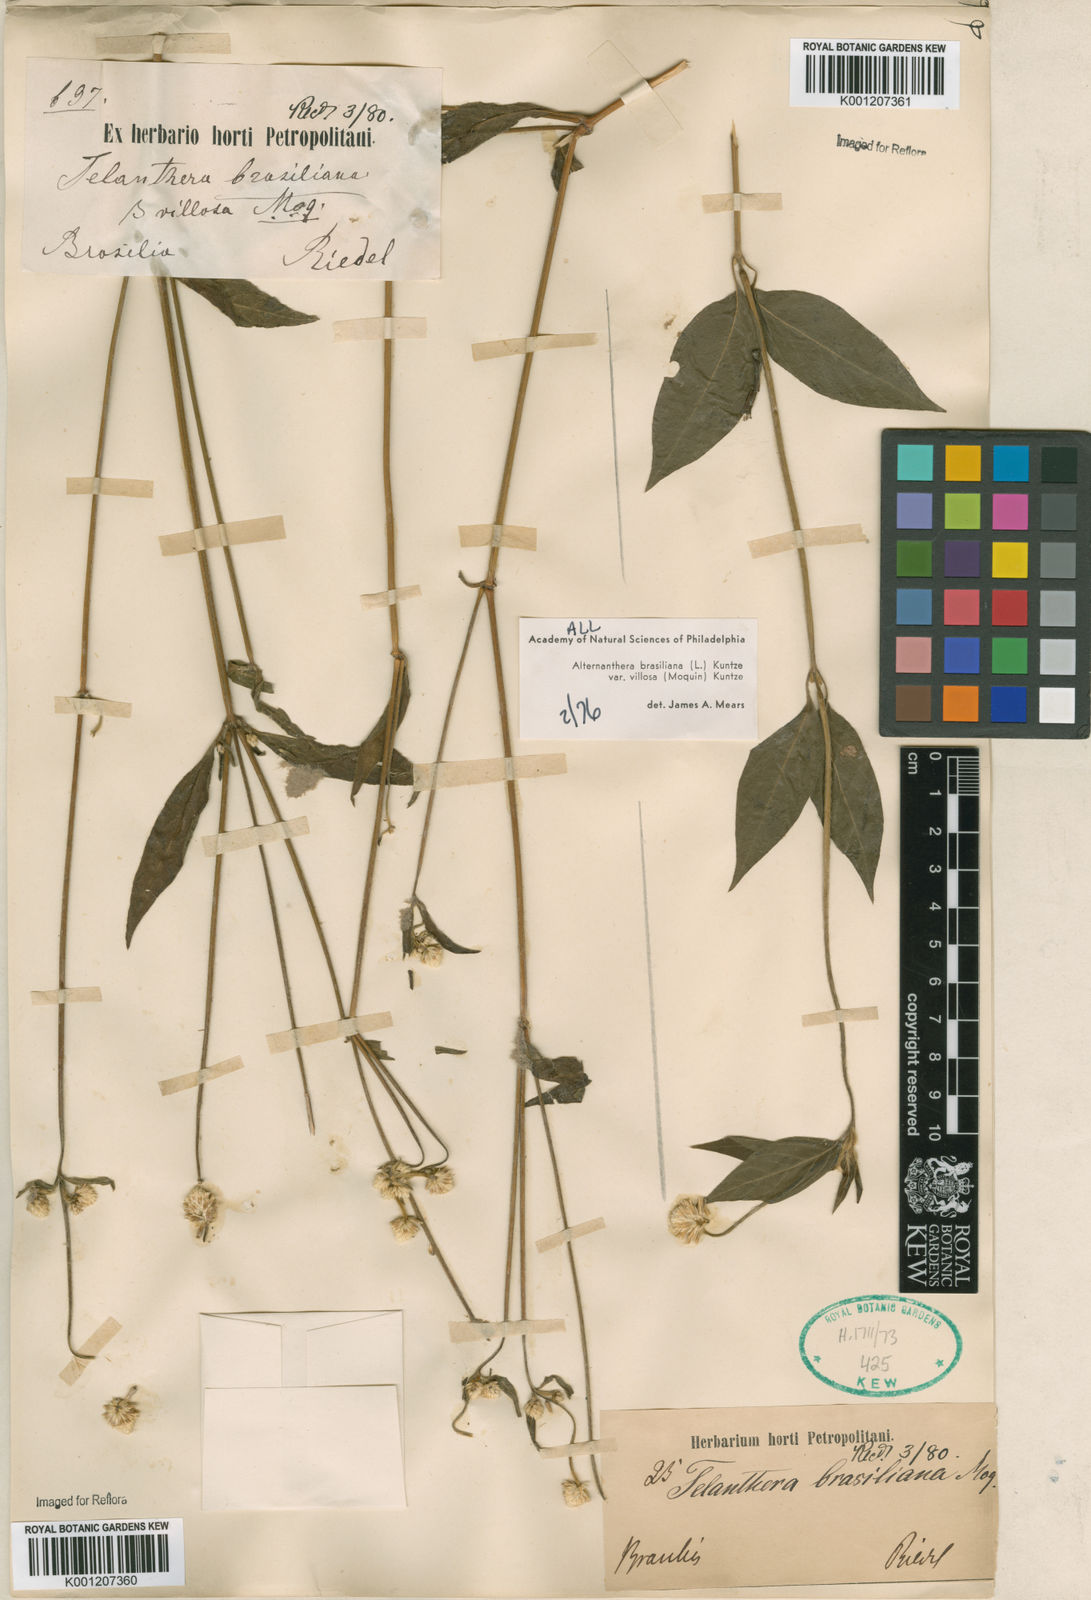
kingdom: Plantae
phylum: Tracheophyta
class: Magnoliopsida
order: Caryophyllales
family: Amaranthaceae
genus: Alternanthera
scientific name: Alternanthera brasiliana
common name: Brazilian joyweed
